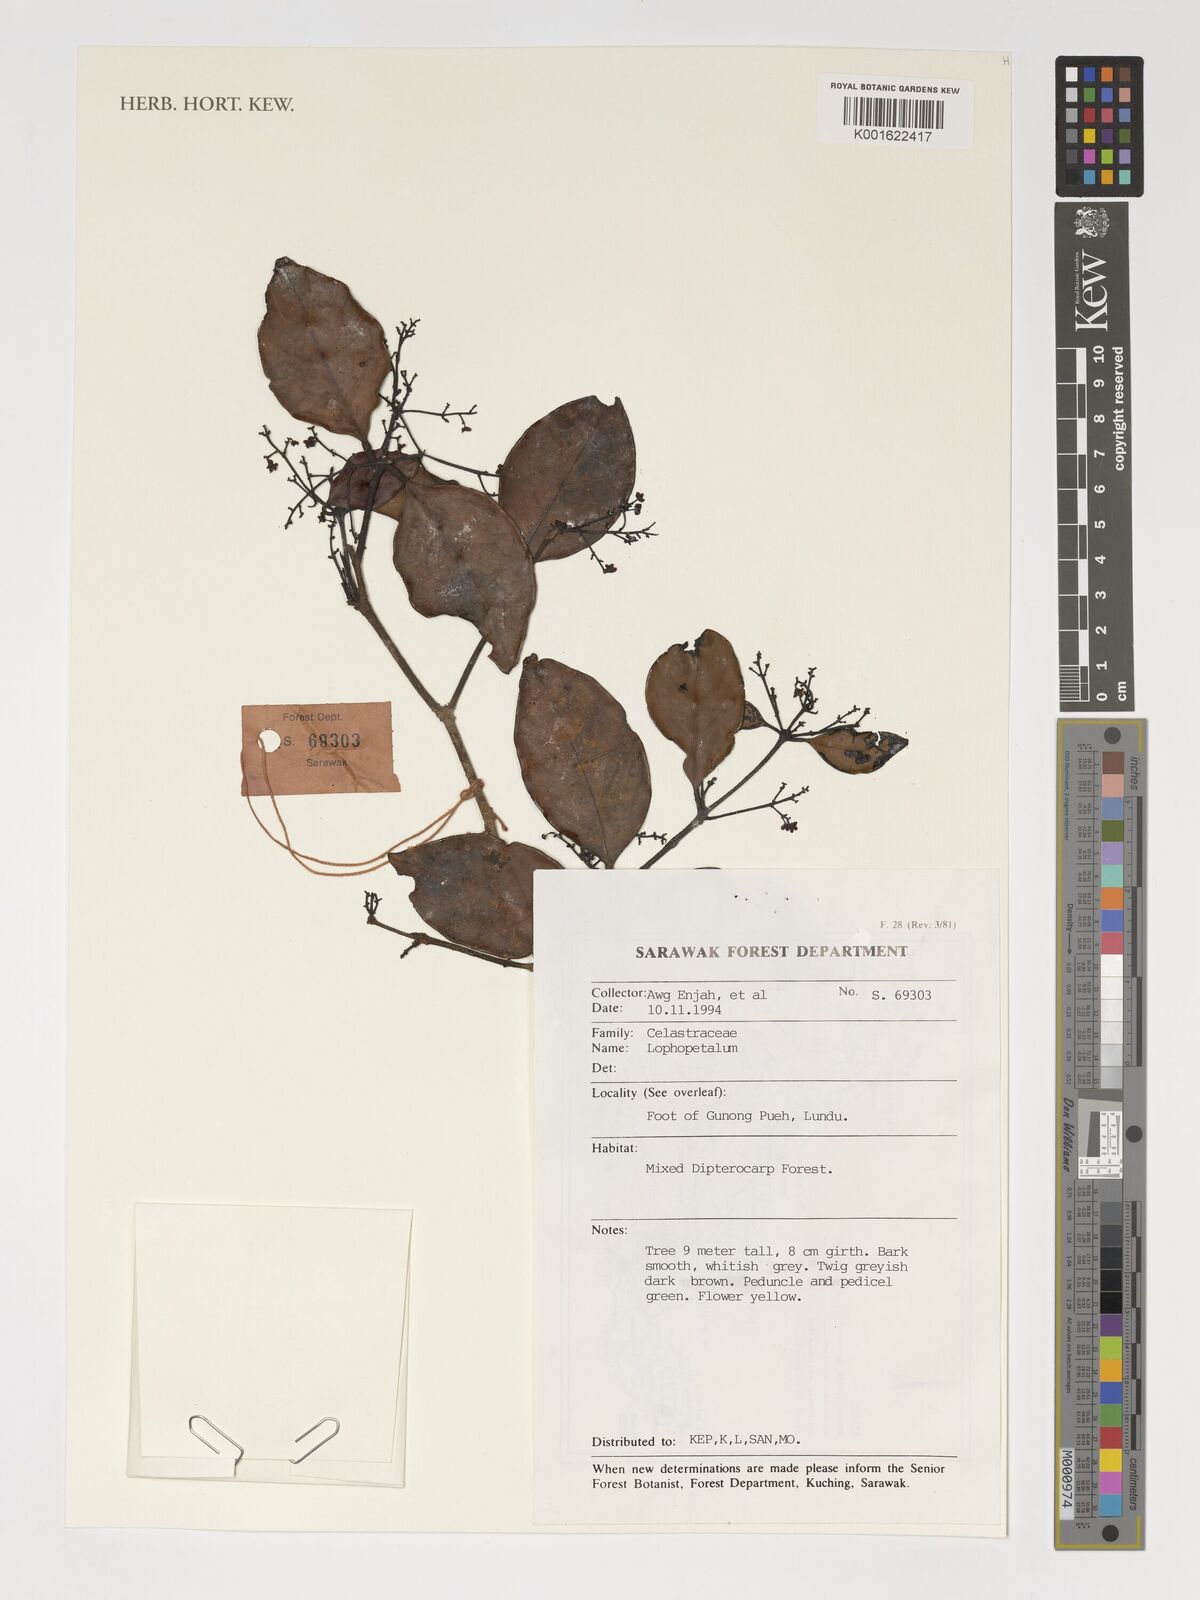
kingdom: Plantae
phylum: Tracheophyta
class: Magnoliopsida
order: Celastrales
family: Celastraceae
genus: Lophopetalum
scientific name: Lophopetalum
